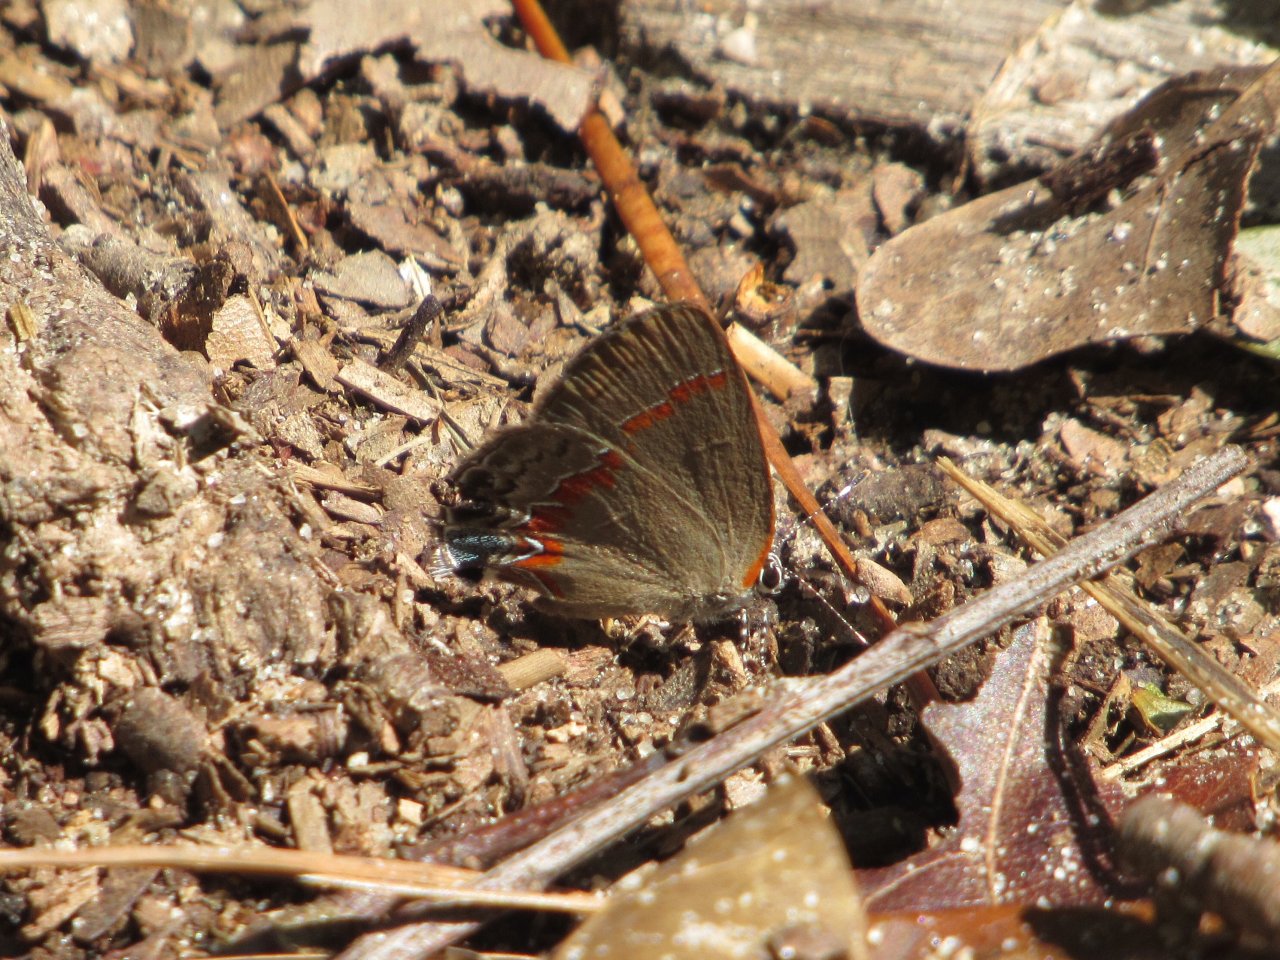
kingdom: Animalia
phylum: Arthropoda
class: Insecta
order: Lepidoptera
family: Lycaenidae
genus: Calycopis
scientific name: Calycopis cecrops
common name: Red-banded Hairstreak
